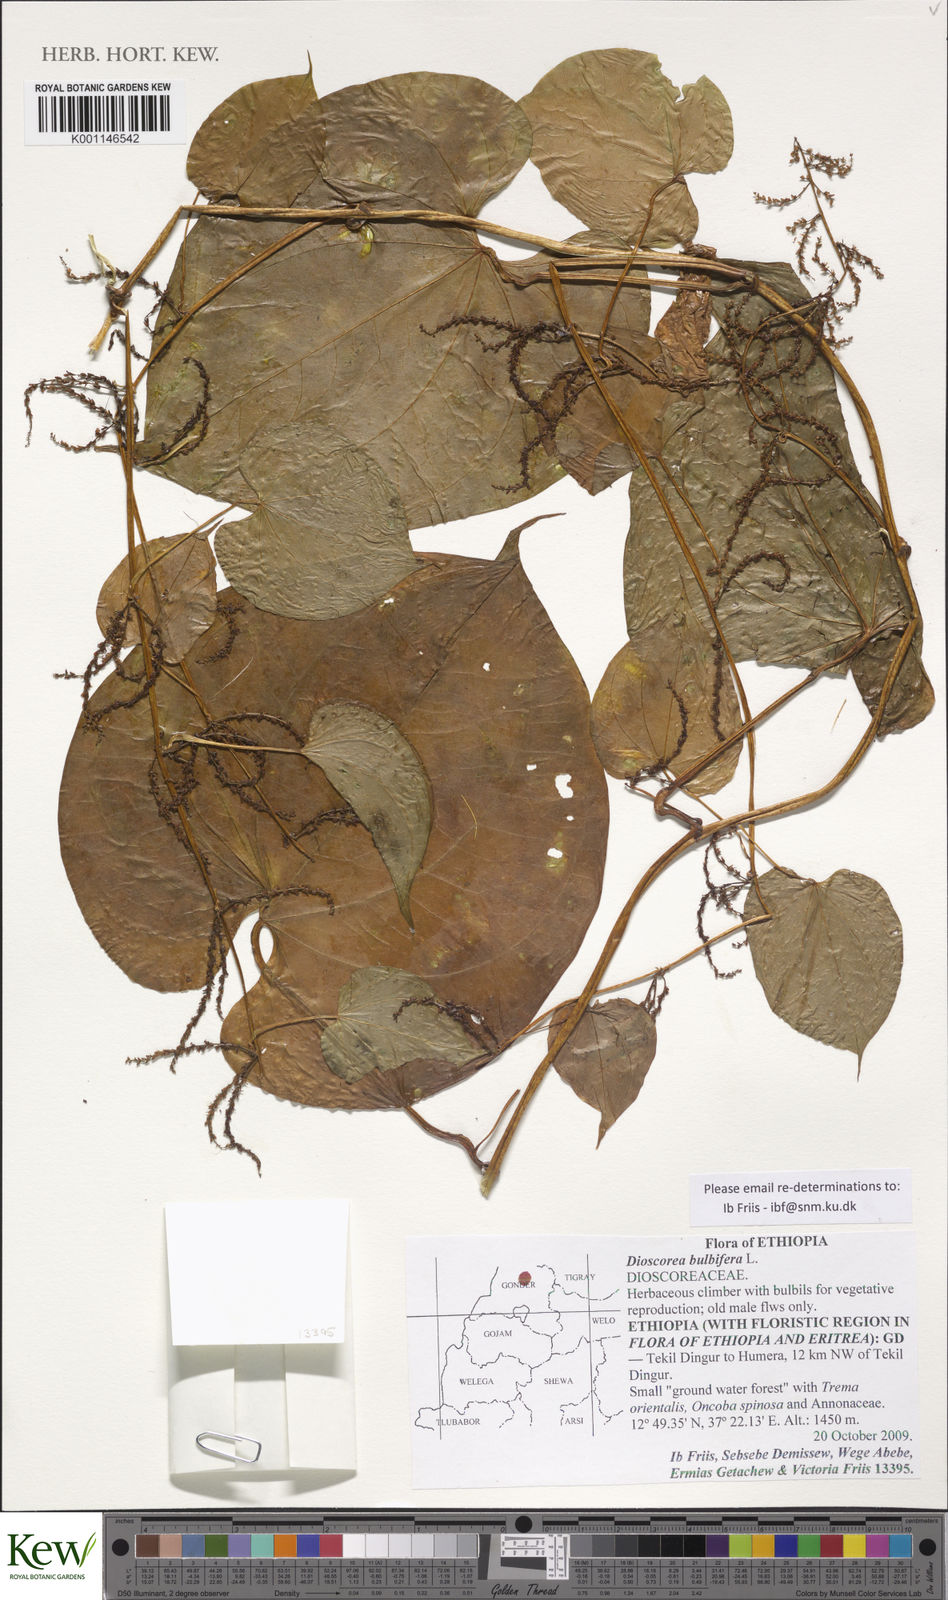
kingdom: Plantae
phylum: Tracheophyta
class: Liliopsida
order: Dioscoreales
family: Dioscoreaceae
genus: Dioscorea
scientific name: Dioscorea bulbifera
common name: Air yam
